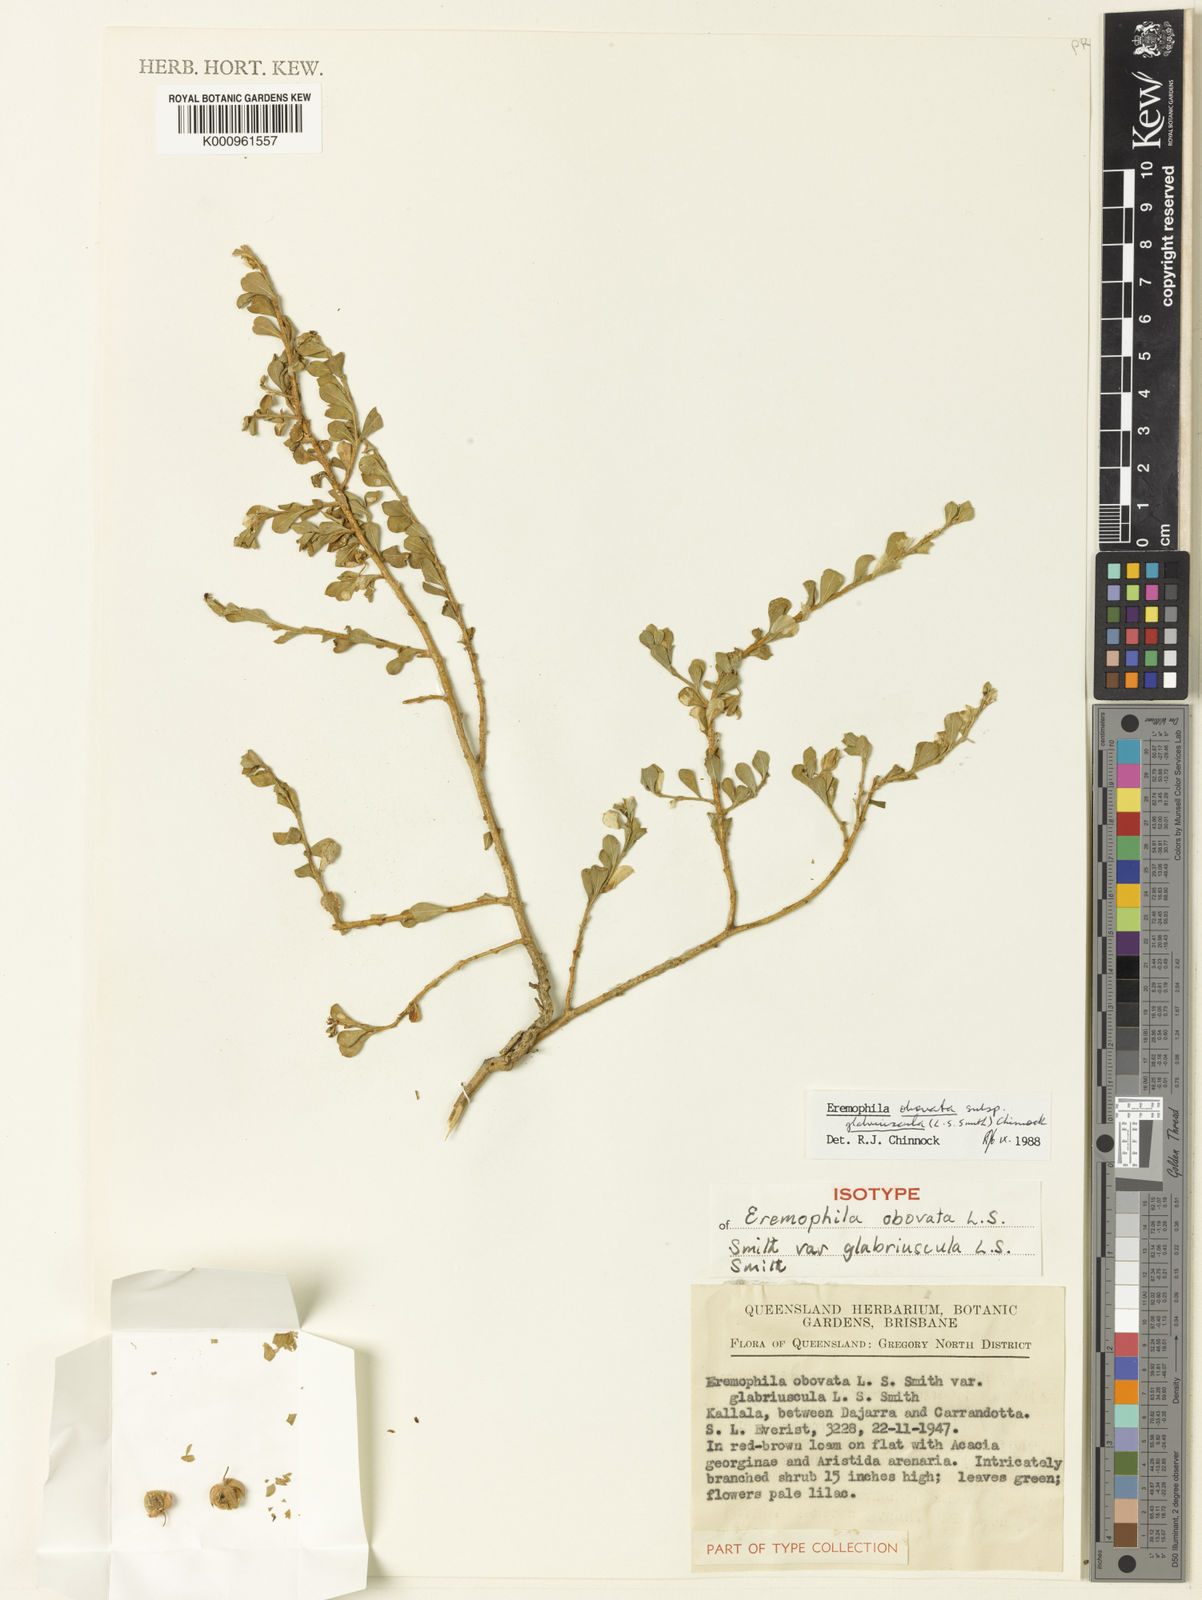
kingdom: Plantae
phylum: Tracheophyta
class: Magnoliopsida
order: Lamiales
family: Scrophulariaceae
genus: Eremophila
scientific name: Eremophila obovata
